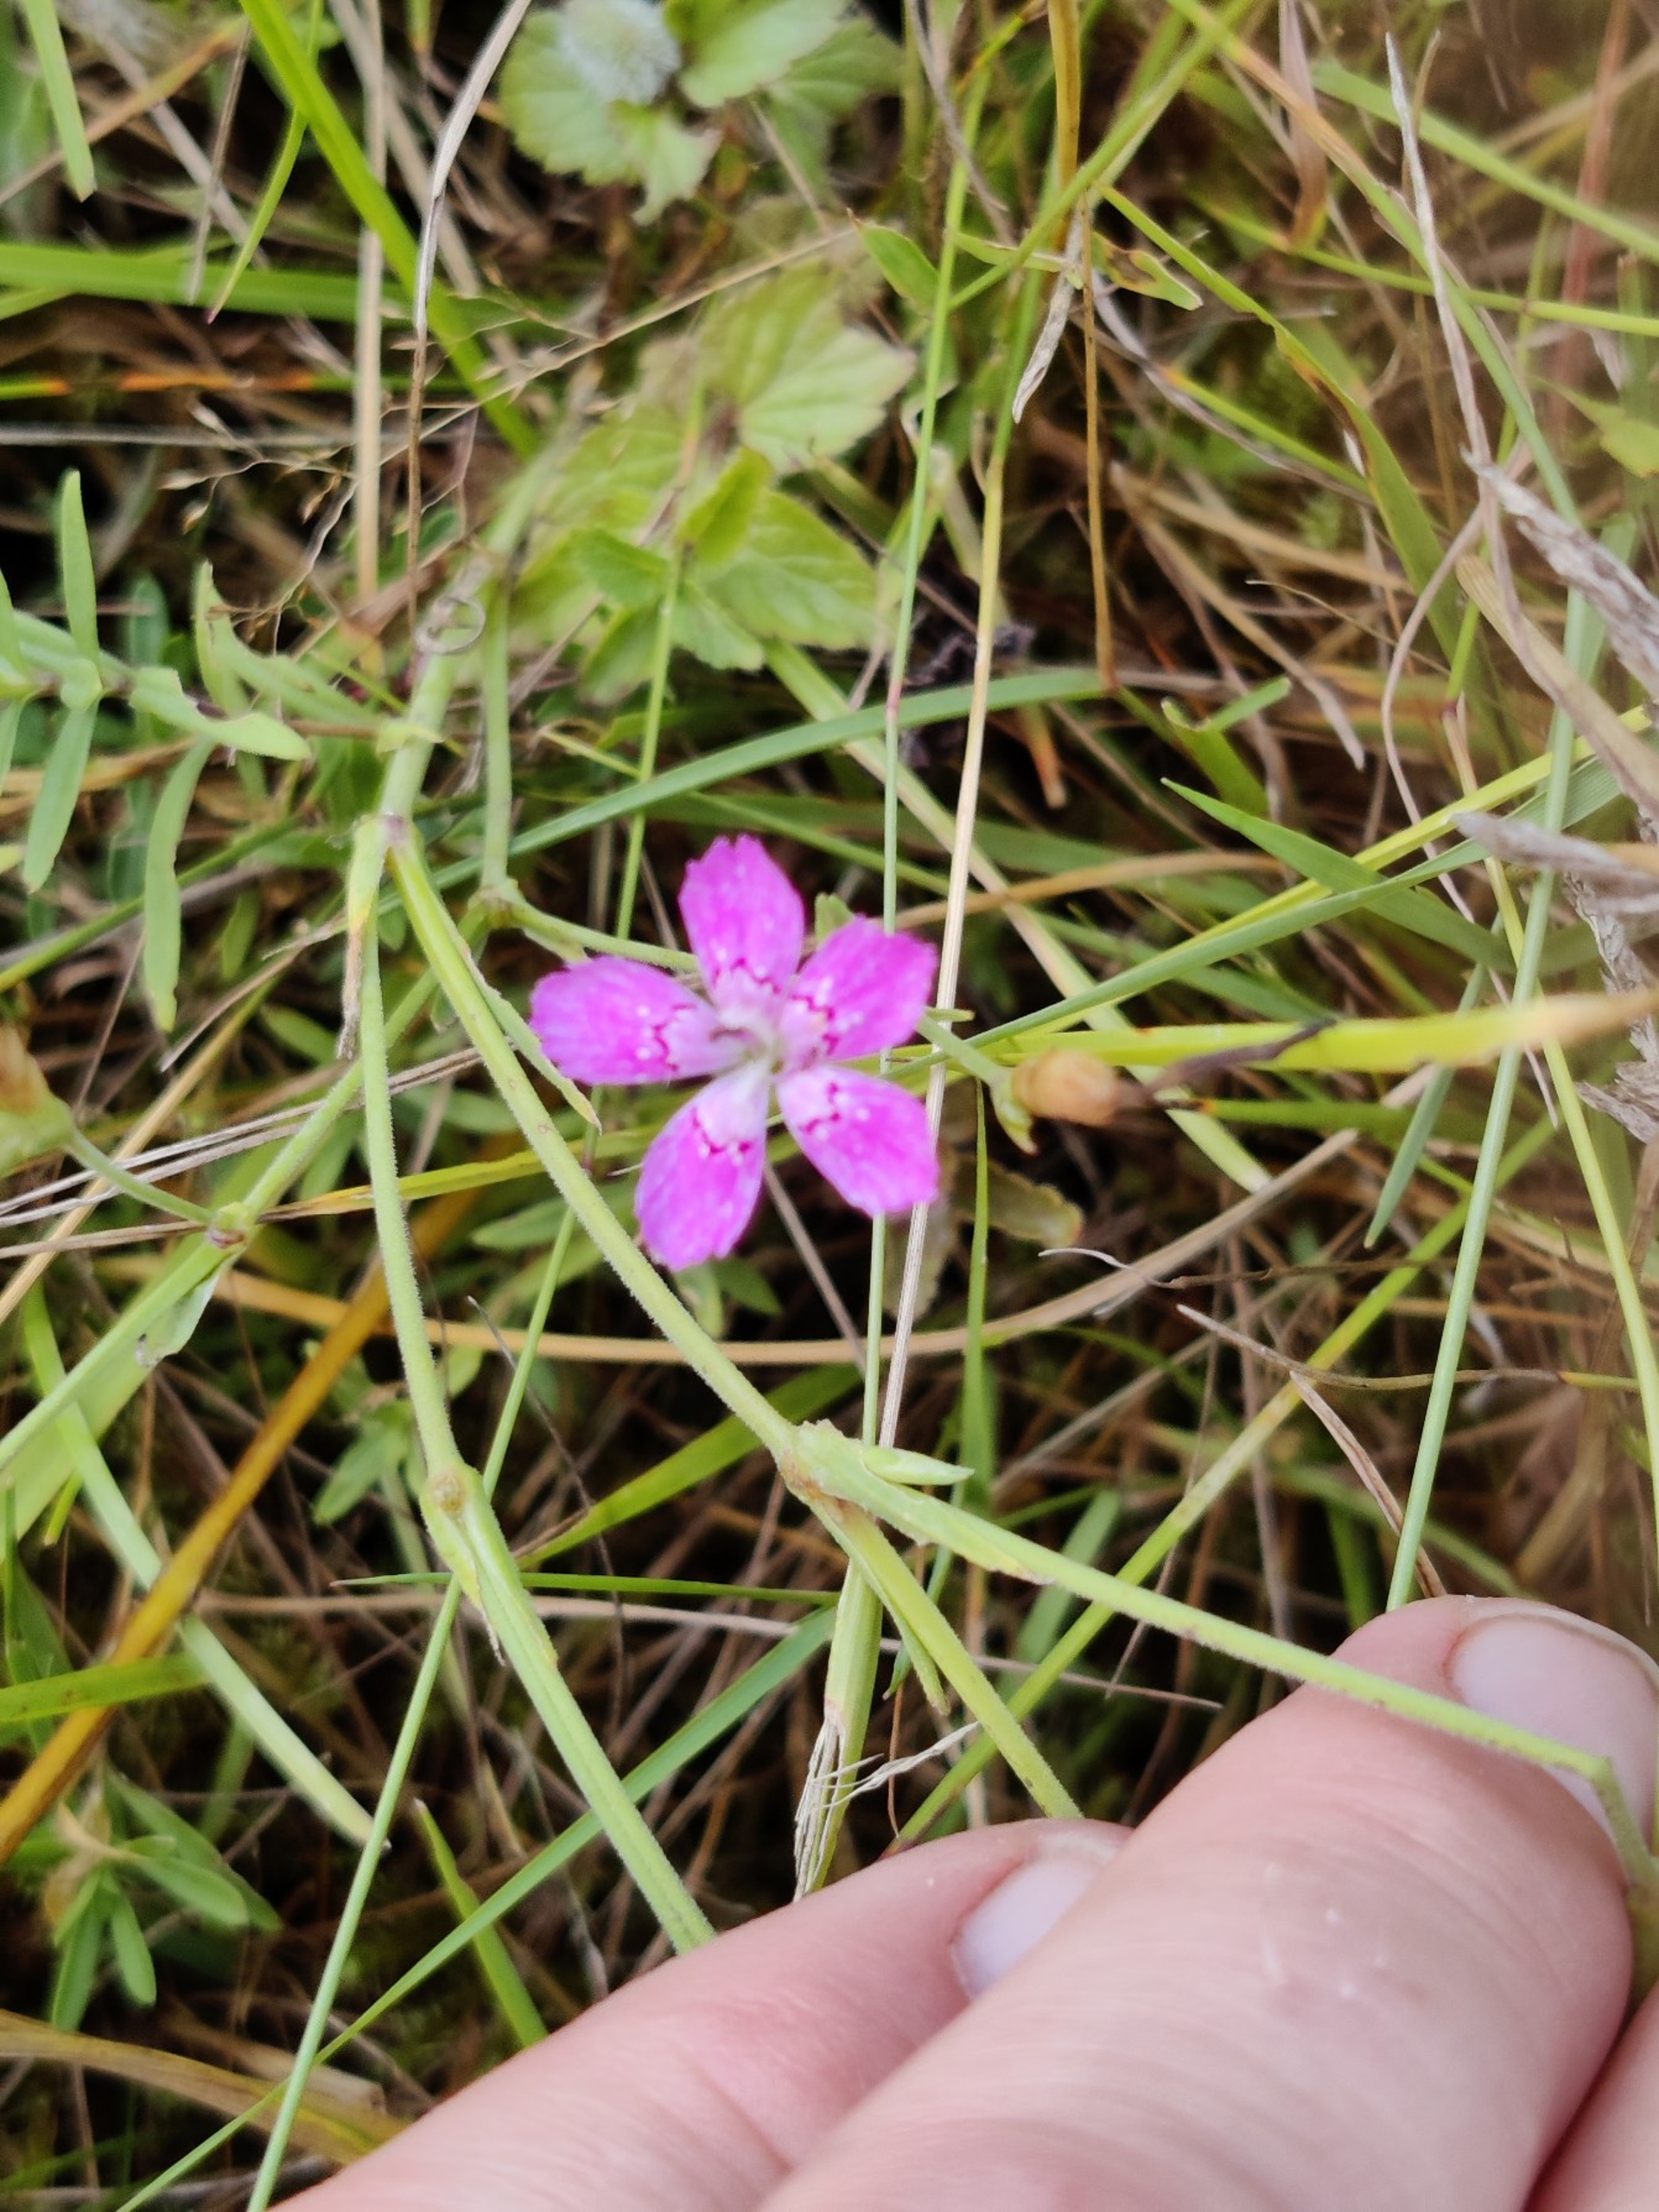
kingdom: Plantae
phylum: Tracheophyta
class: Magnoliopsida
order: Caryophyllales
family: Caryophyllaceae
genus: Dianthus
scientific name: Dianthus deltoides
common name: Bakke-nellike
